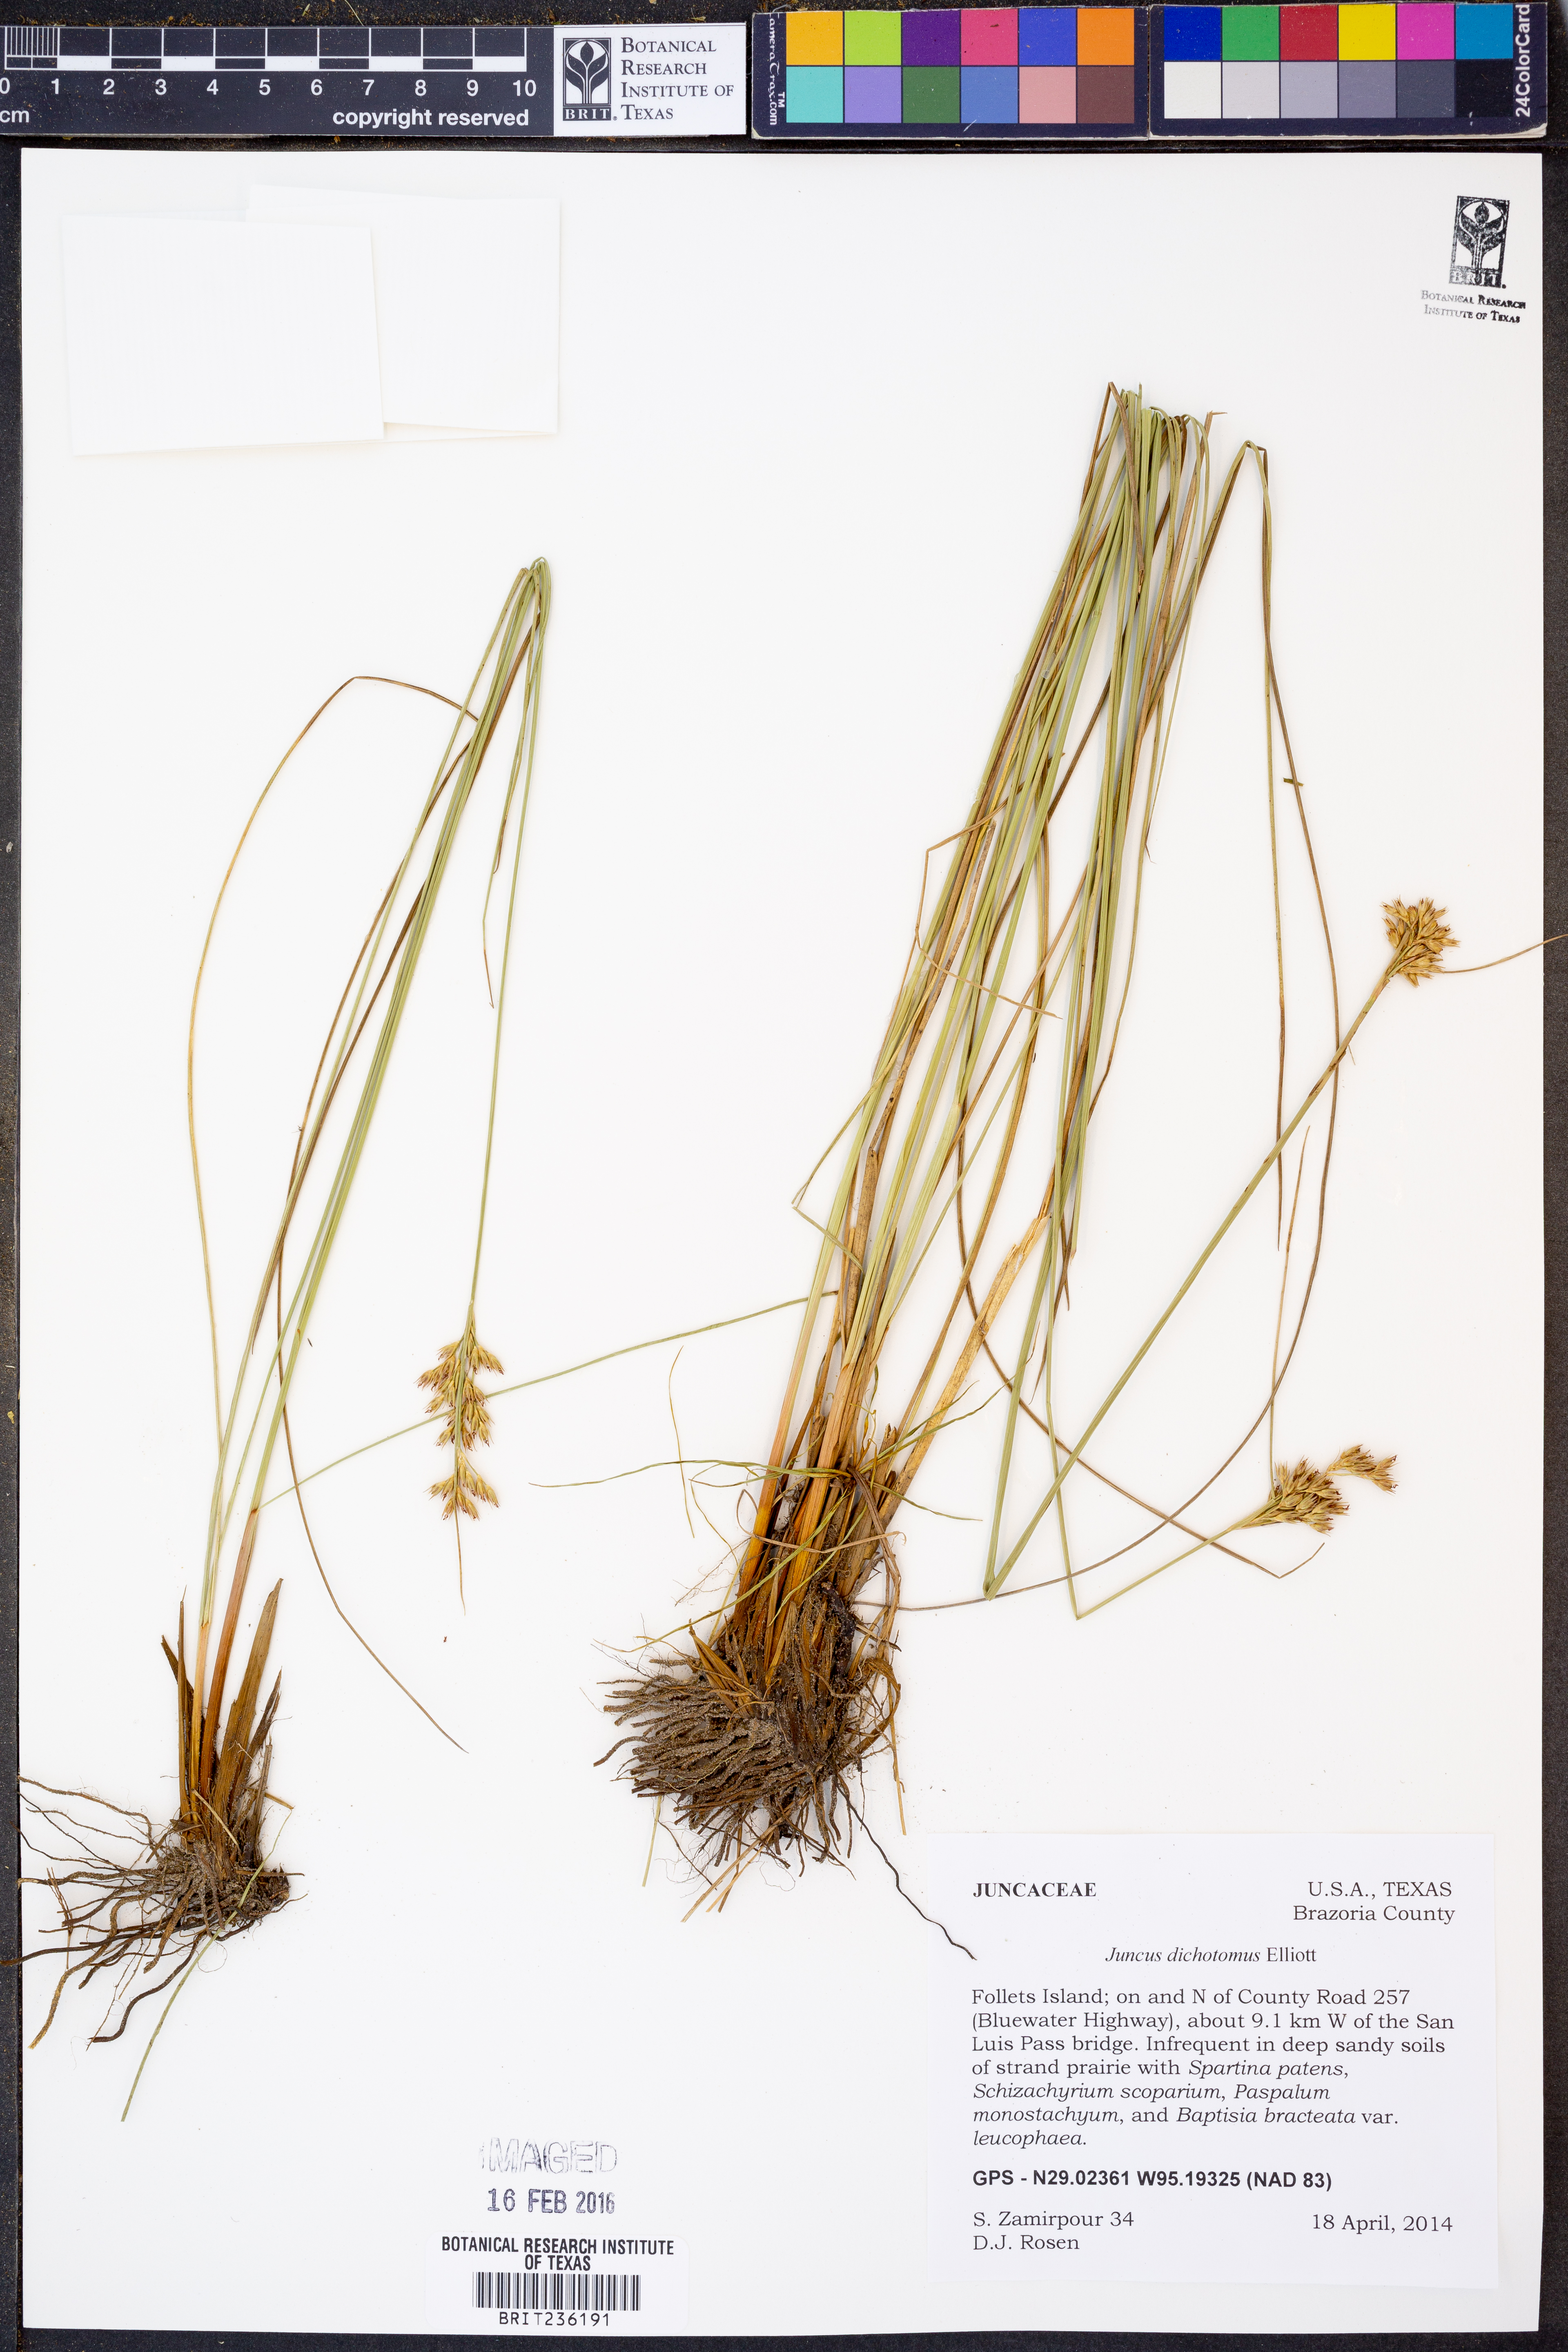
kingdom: Plantae
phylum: Tracheophyta
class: Liliopsida
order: Poales
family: Juncaceae
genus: Juncus
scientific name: Juncus dichotomus
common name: Forked rush
